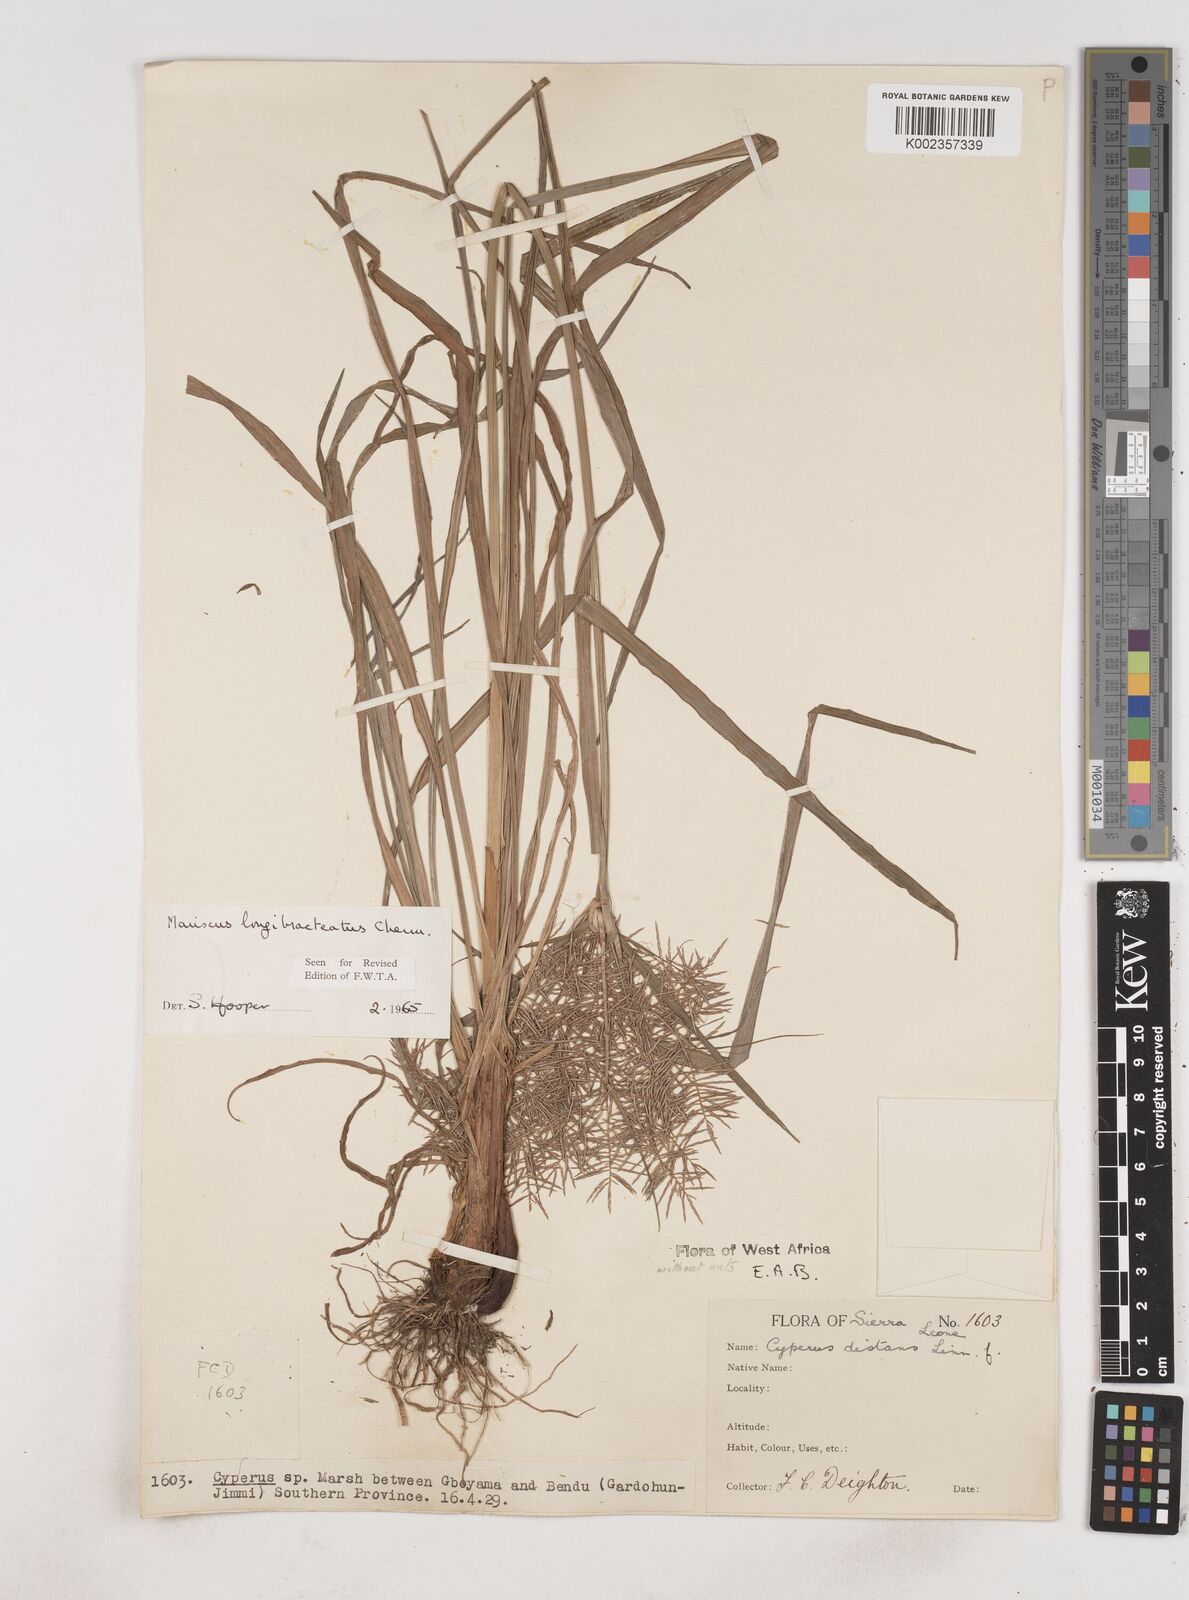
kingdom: Plantae
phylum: Tracheophyta
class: Liliopsida
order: Poales
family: Cyperaceae
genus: Cyperus
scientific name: Cyperus distans
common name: Slender cyperus
